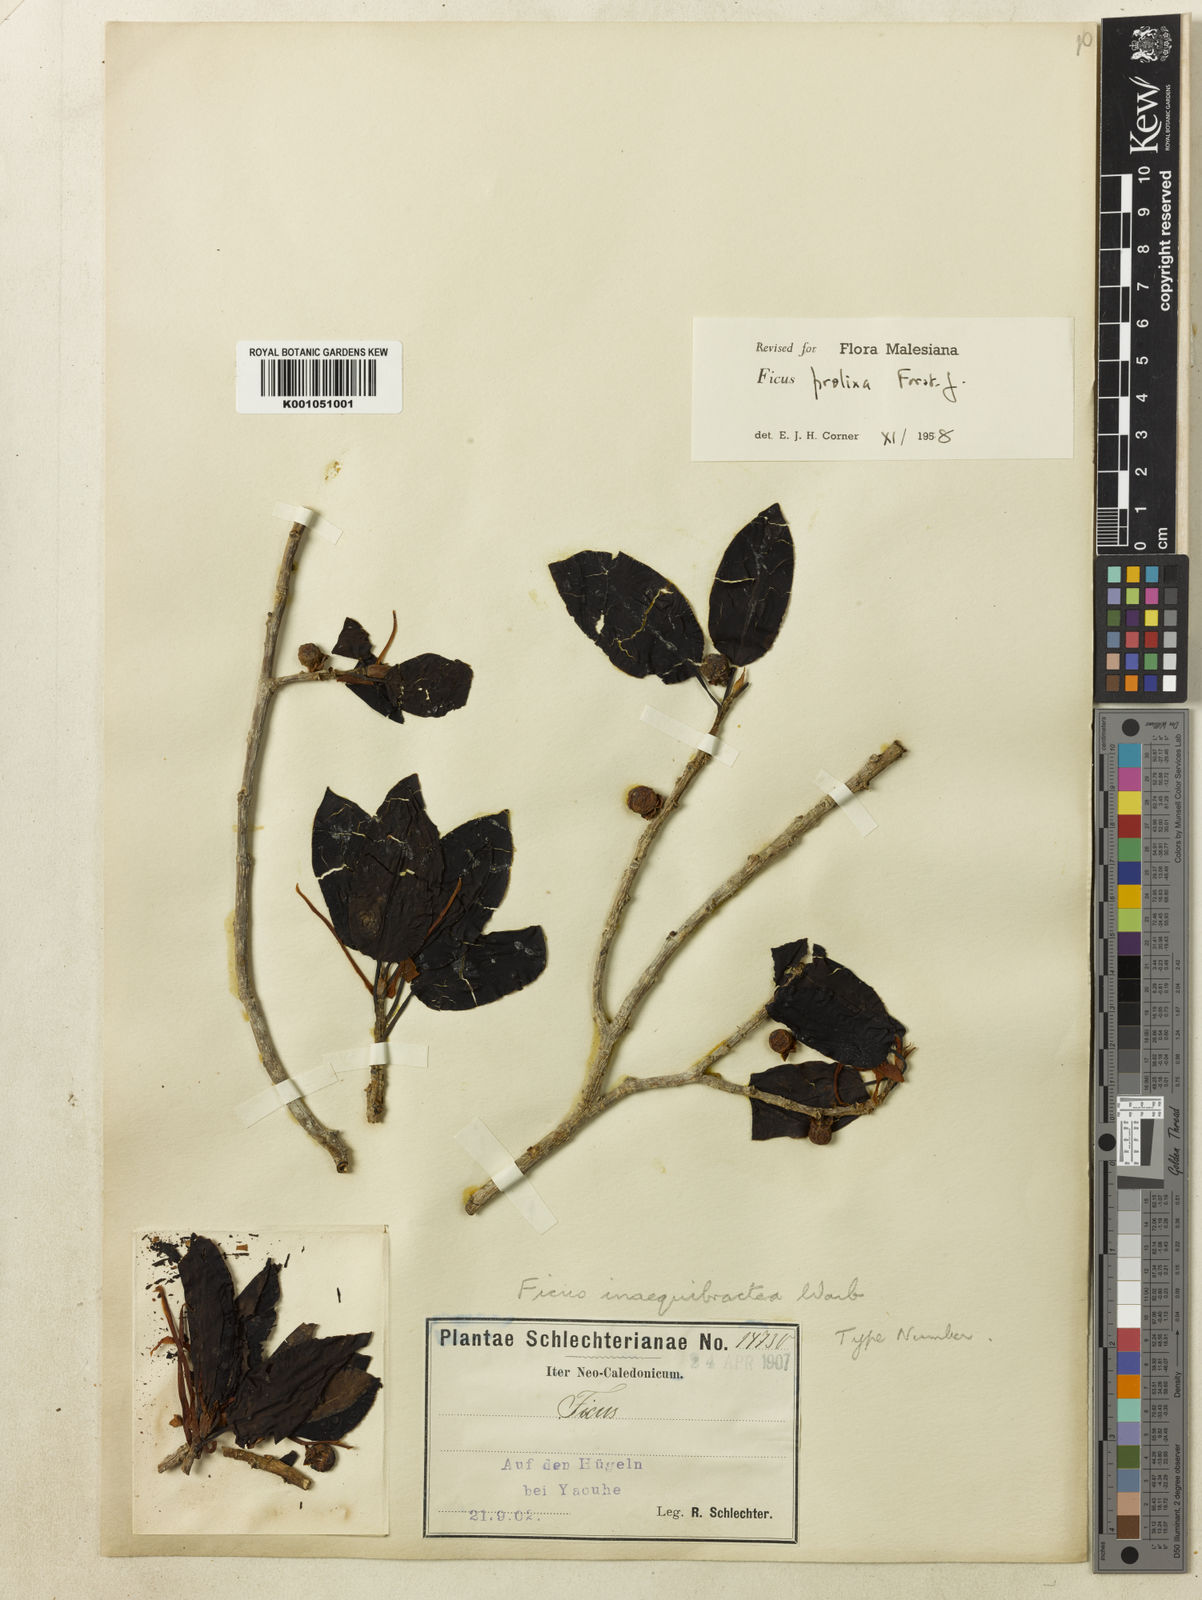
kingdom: Plantae
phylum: Tracheophyta
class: Magnoliopsida
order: Rosales
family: Moraceae
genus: Ficus
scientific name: Ficus prolixa
